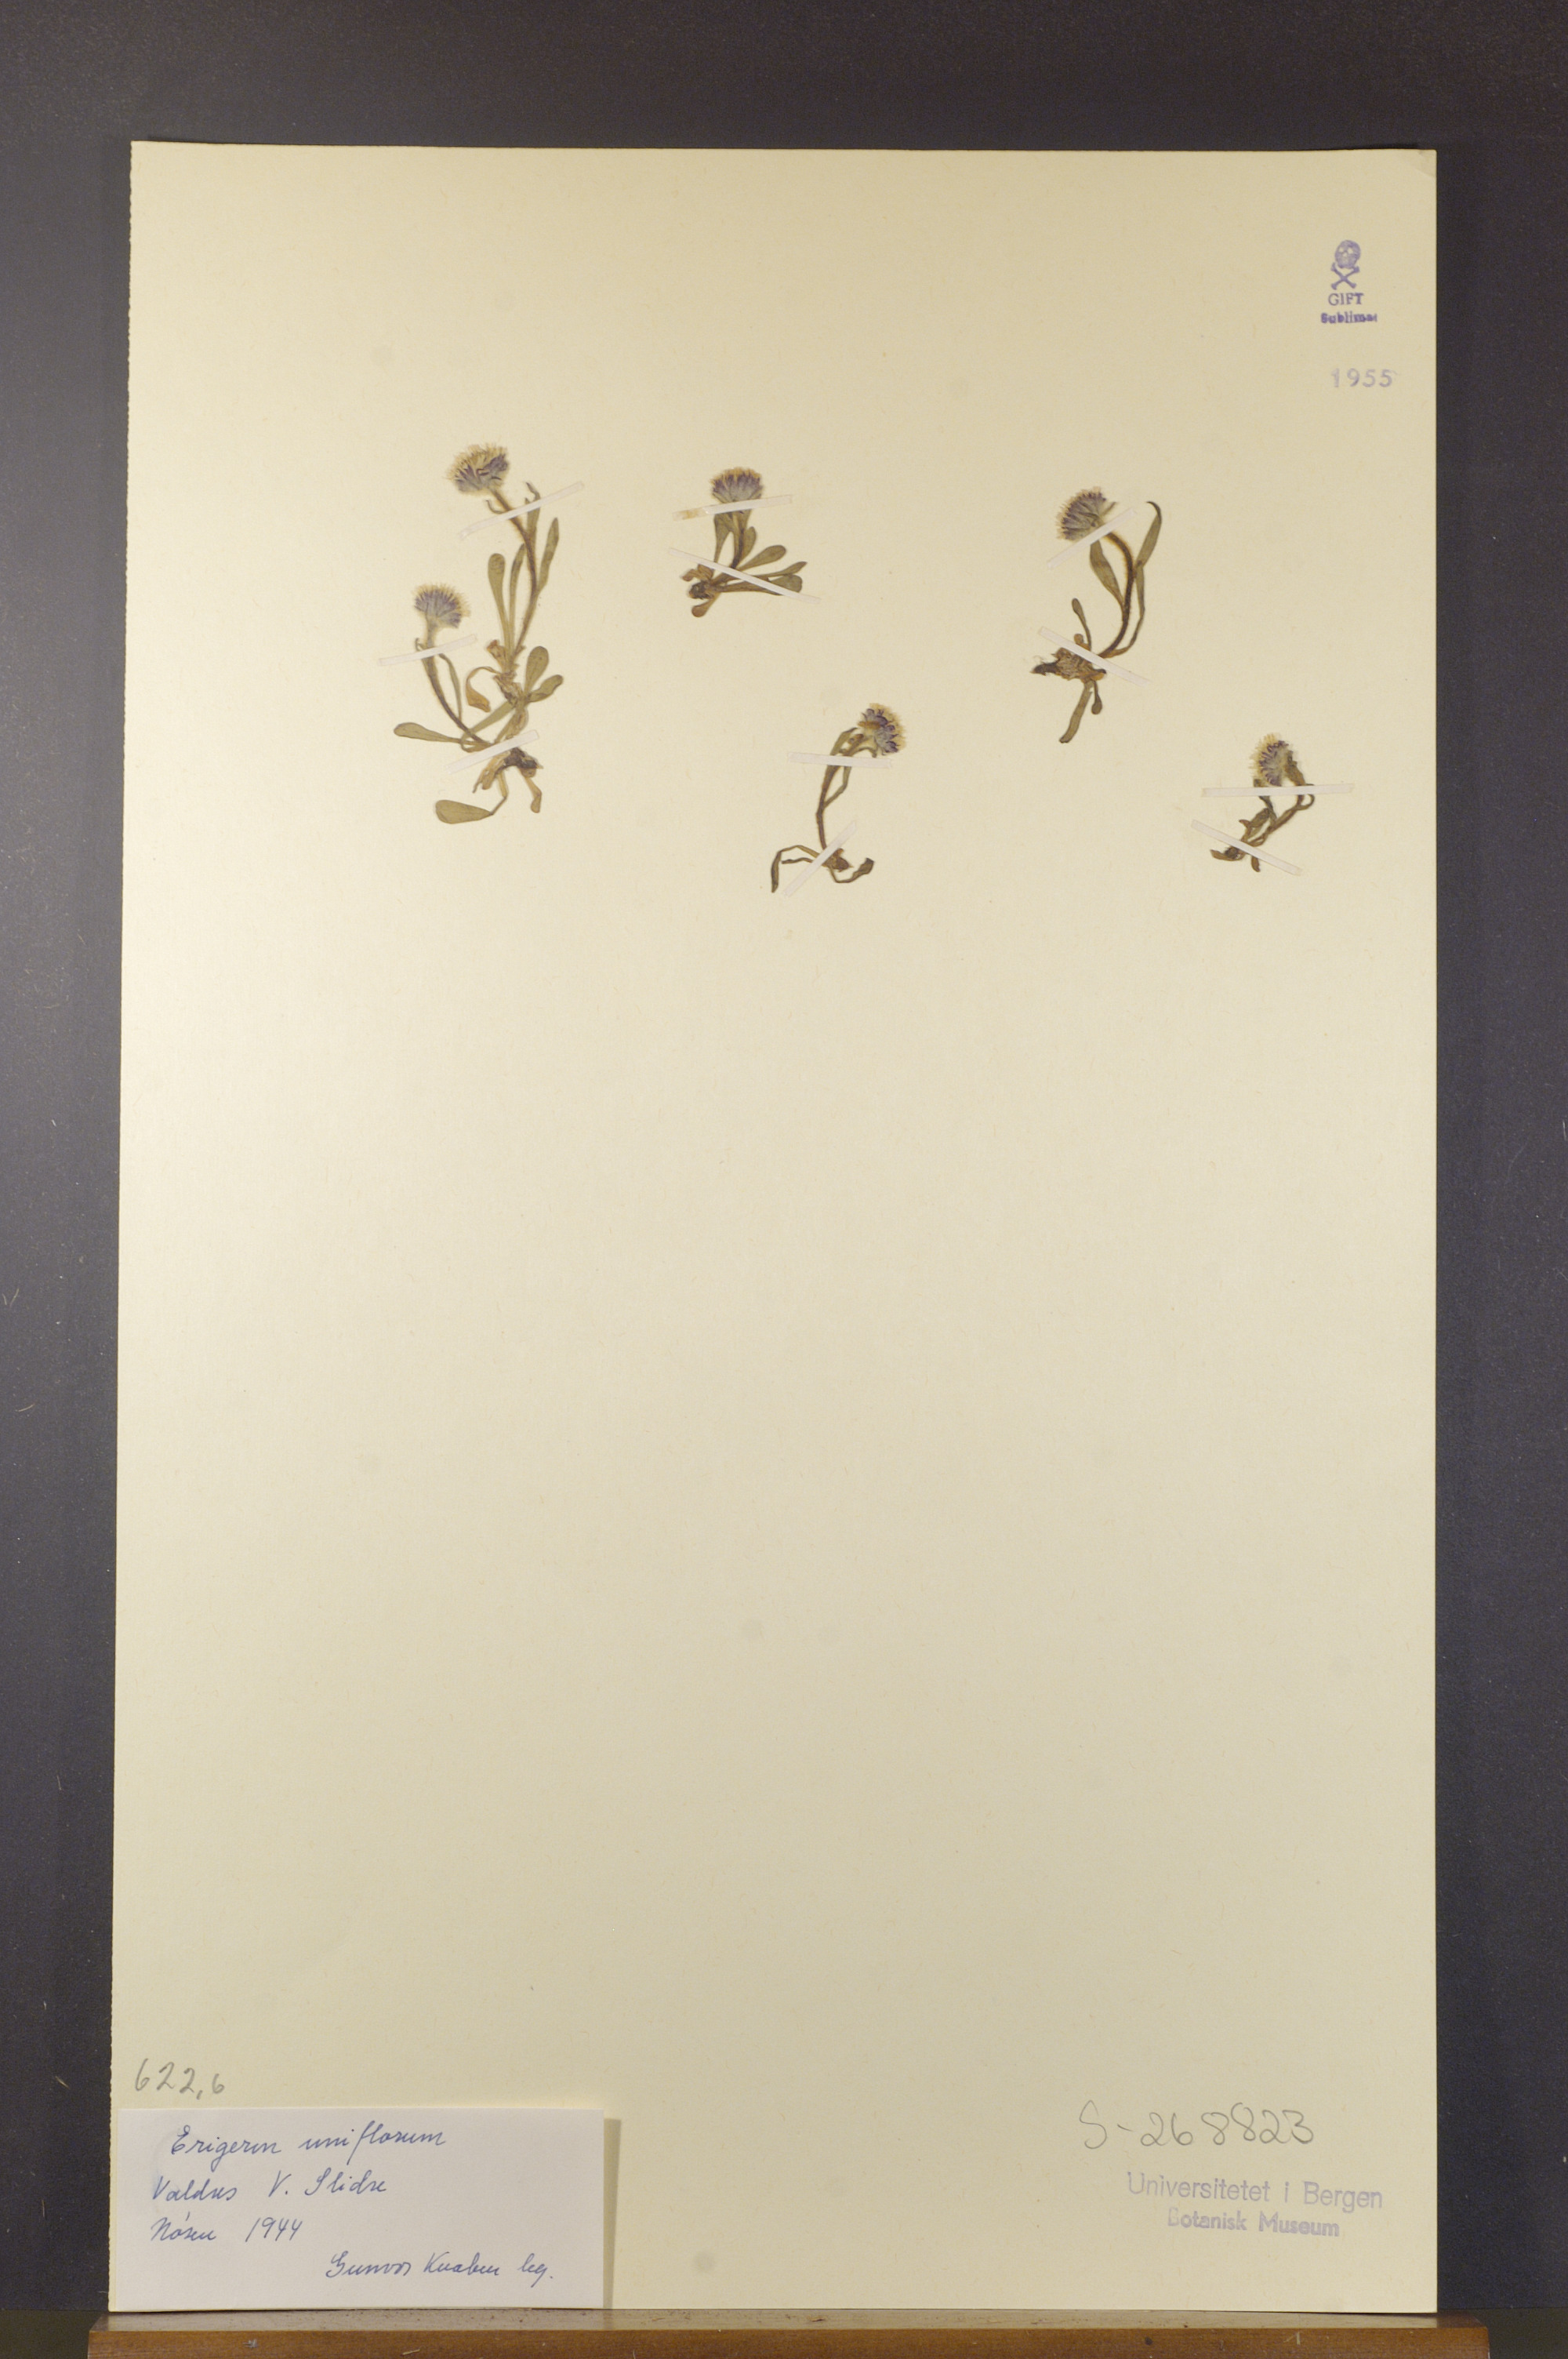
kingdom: Plantae
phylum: Tracheophyta
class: Magnoliopsida
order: Asterales
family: Asteraceae
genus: Erigeron
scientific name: Erigeron uniflorus
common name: Northern daisy
